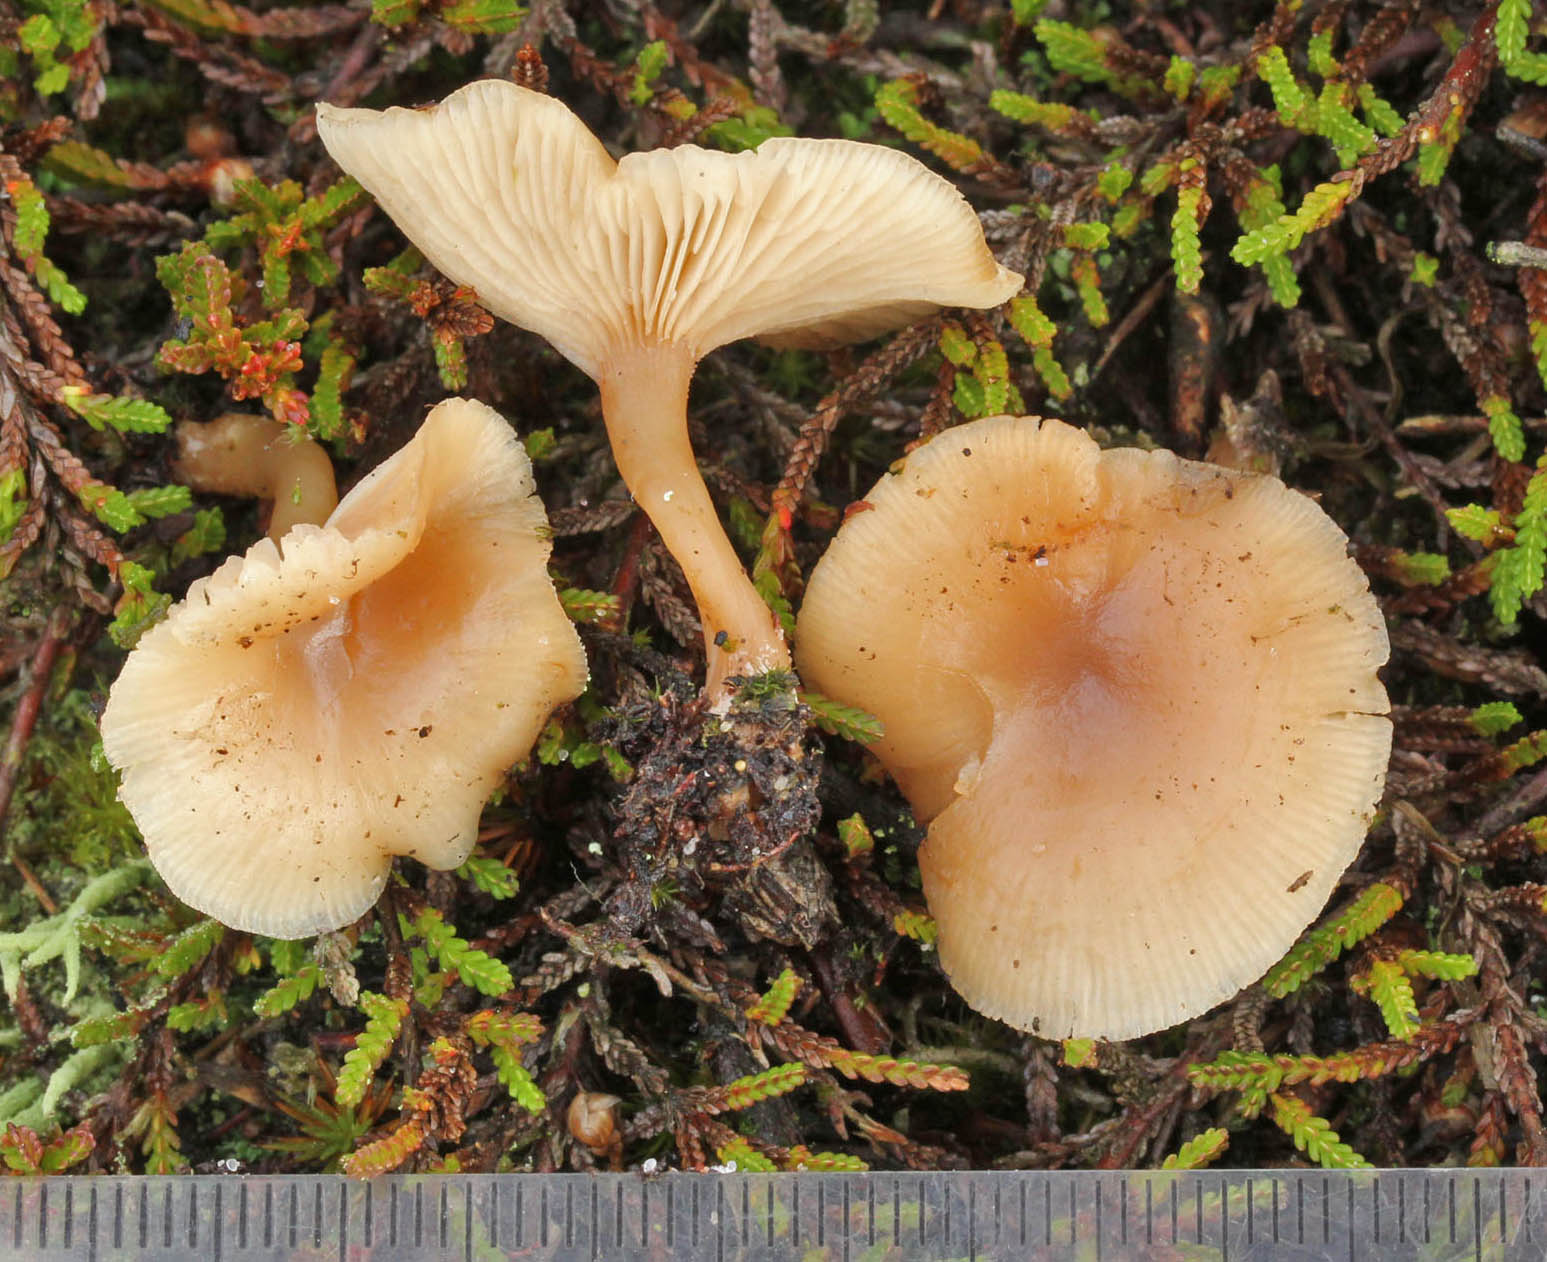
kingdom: Fungi
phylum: Basidiomycota
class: Agaricomycetes
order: Agaricales
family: Tricholomataceae
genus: Clitocybe
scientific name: Clitocybe marginella
